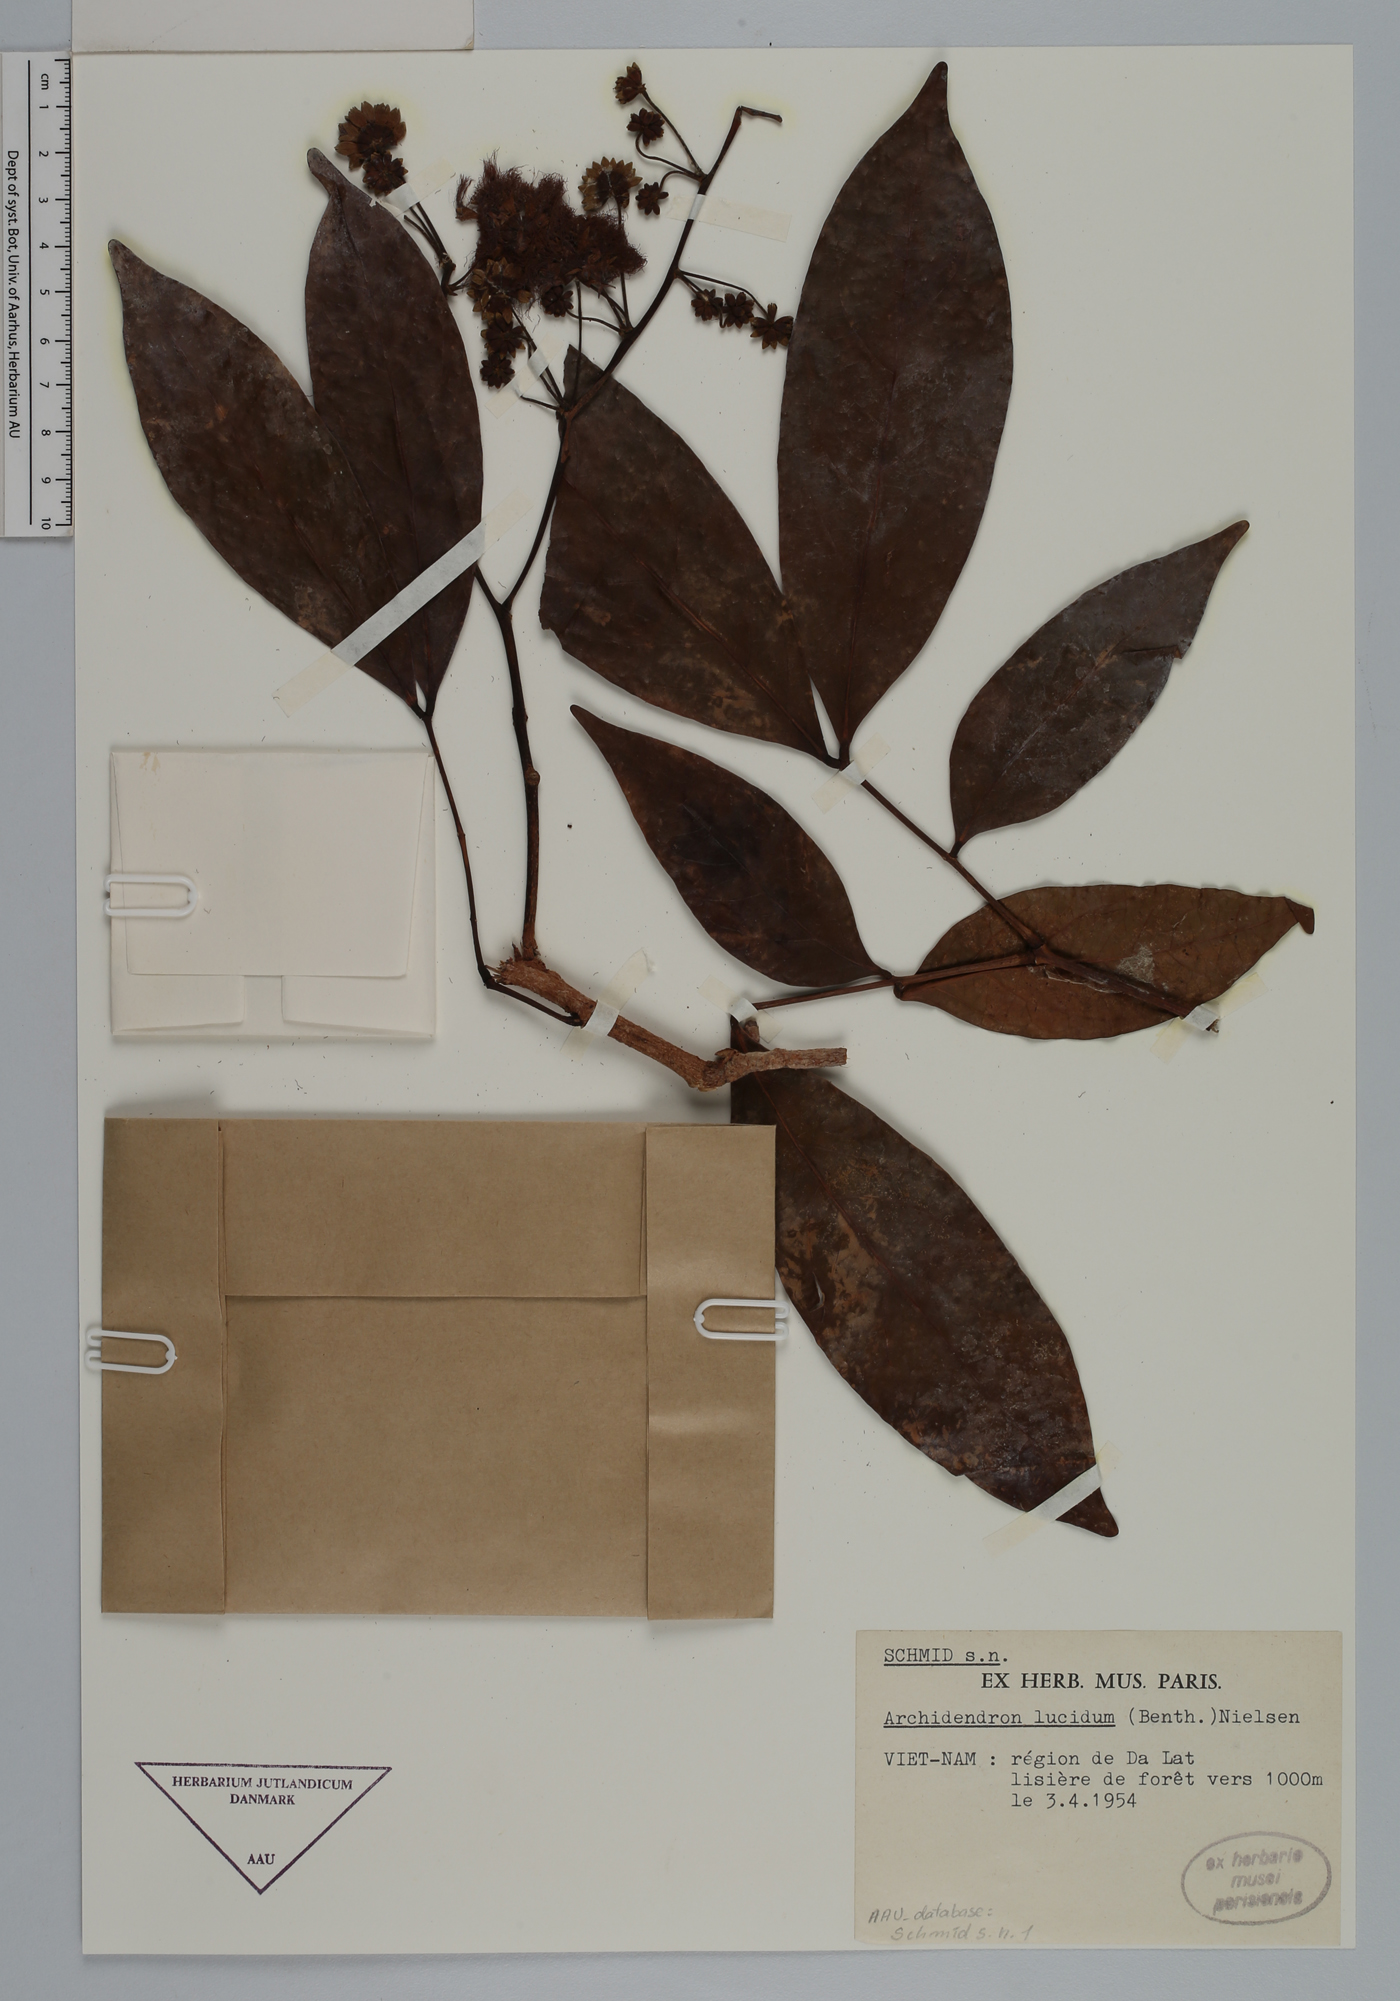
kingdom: Plantae
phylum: Tracheophyta
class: Magnoliopsida
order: Fabales
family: Fabaceae
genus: Archidendron
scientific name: Archidendron lucidum
